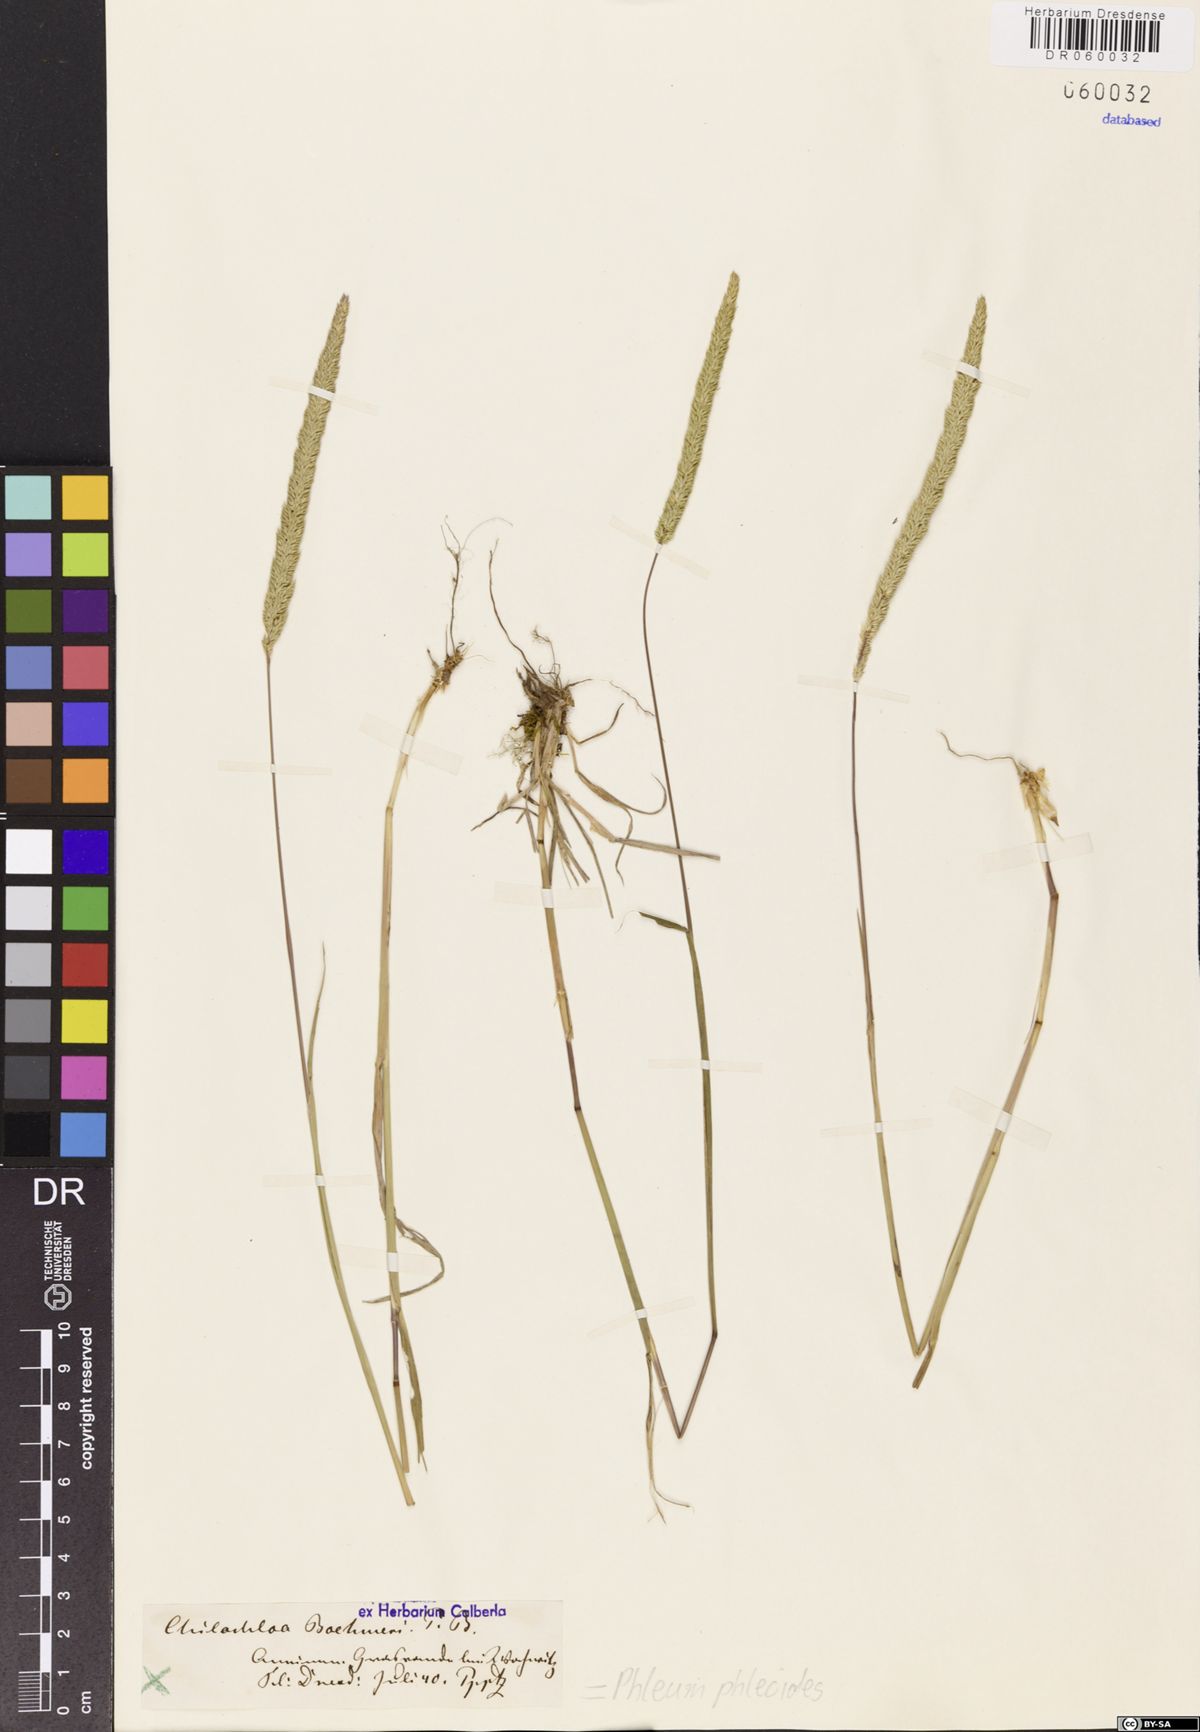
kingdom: Plantae
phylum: Tracheophyta
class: Liliopsida
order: Poales
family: Poaceae
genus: Phleum
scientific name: Phleum phleoides
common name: Purple-stem cat's-tail
